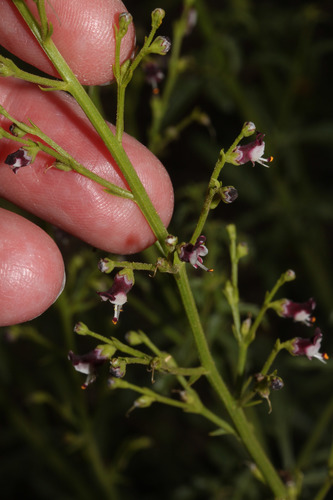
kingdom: Plantae
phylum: Tracheophyta
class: Magnoliopsida
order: Lamiales
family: Scrophulariaceae
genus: Scrophularia
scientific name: Scrophularia canina
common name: French figwort
